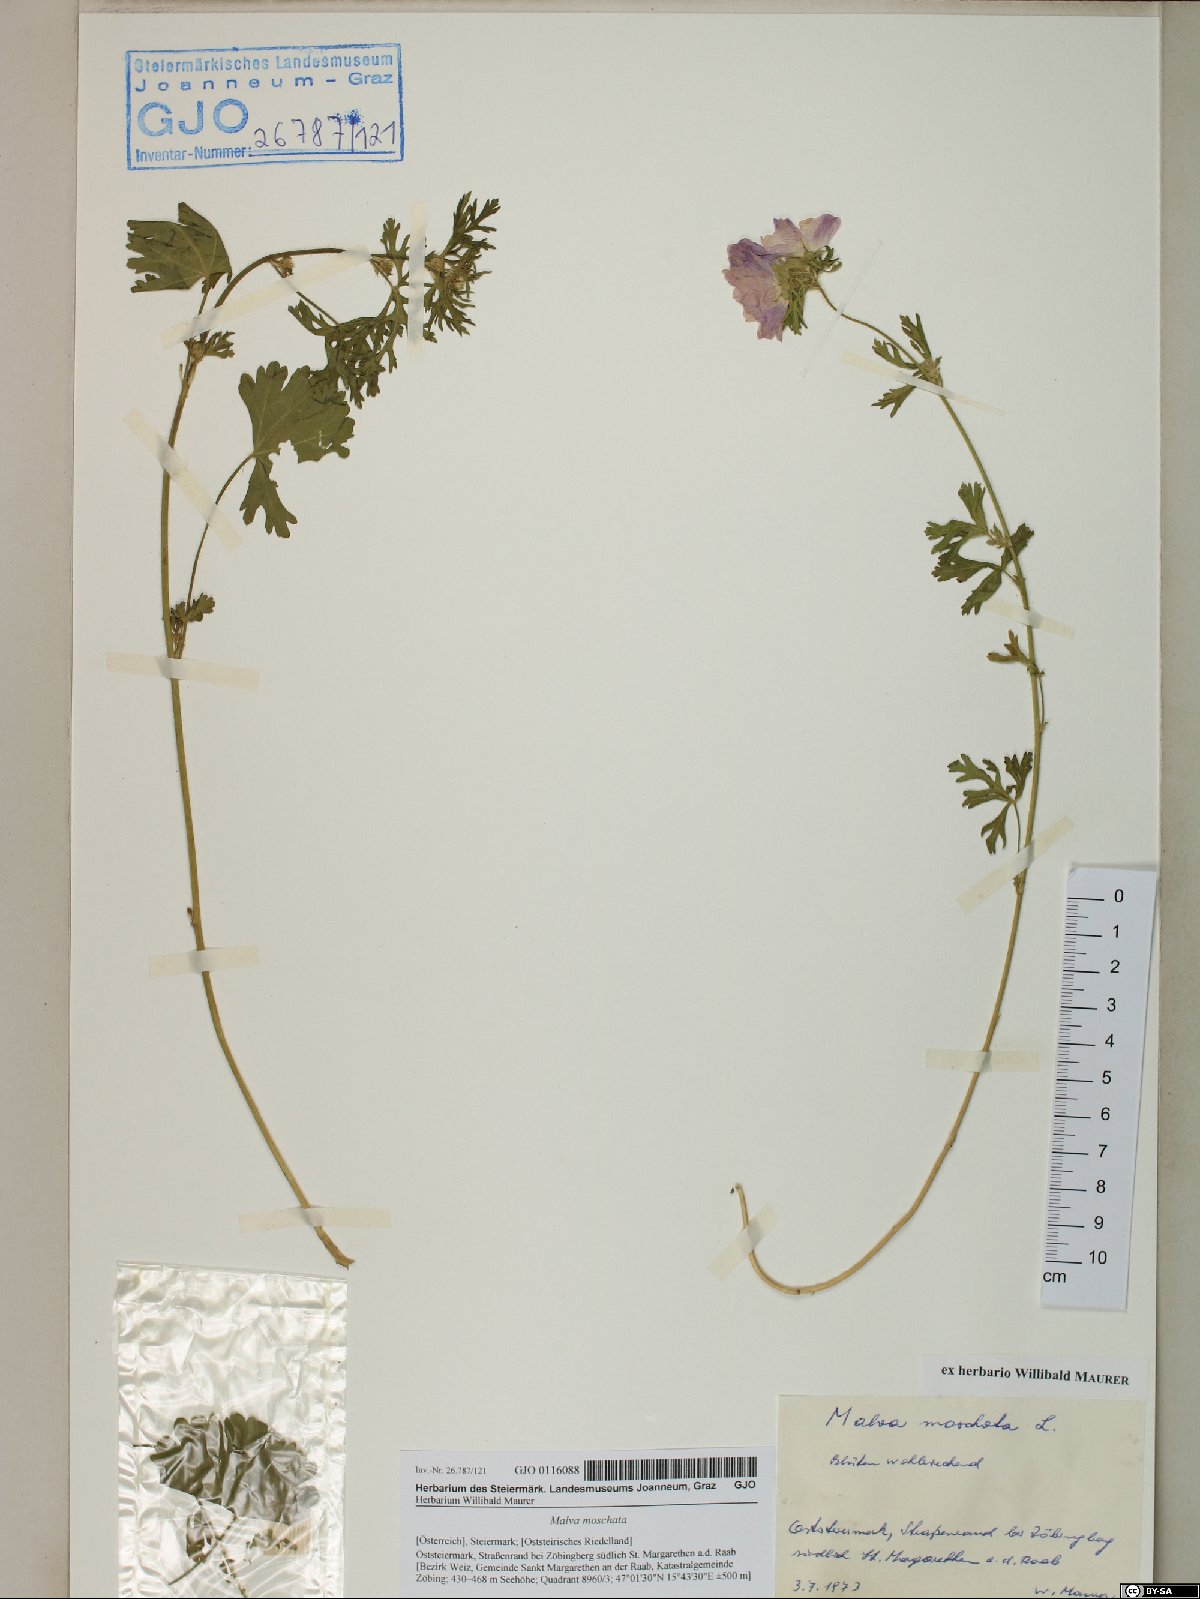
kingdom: Plantae
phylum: Tracheophyta
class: Magnoliopsida
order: Malvales
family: Malvaceae
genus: Malva
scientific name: Malva moschata
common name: Musk mallow
